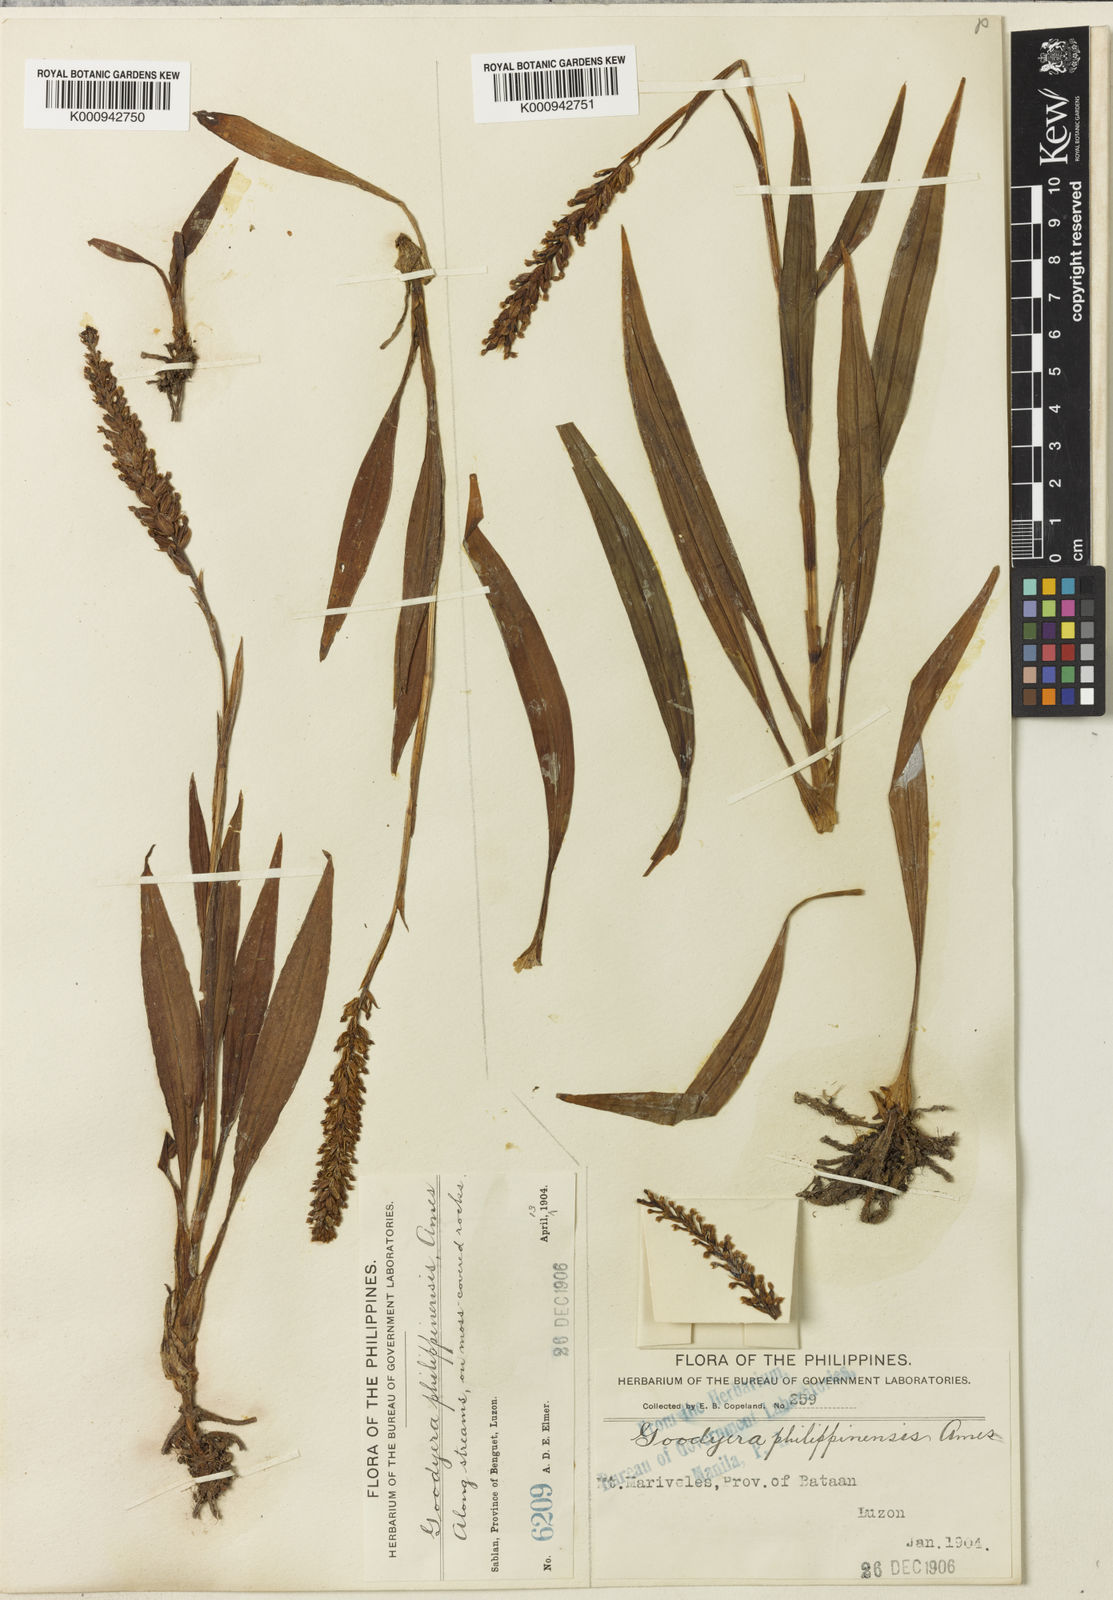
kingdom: Plantae
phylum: Tracheophyta
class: Liliopsida
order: Asparagales
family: Orchidaceae
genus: Goodyera
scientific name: Goodyera procera
